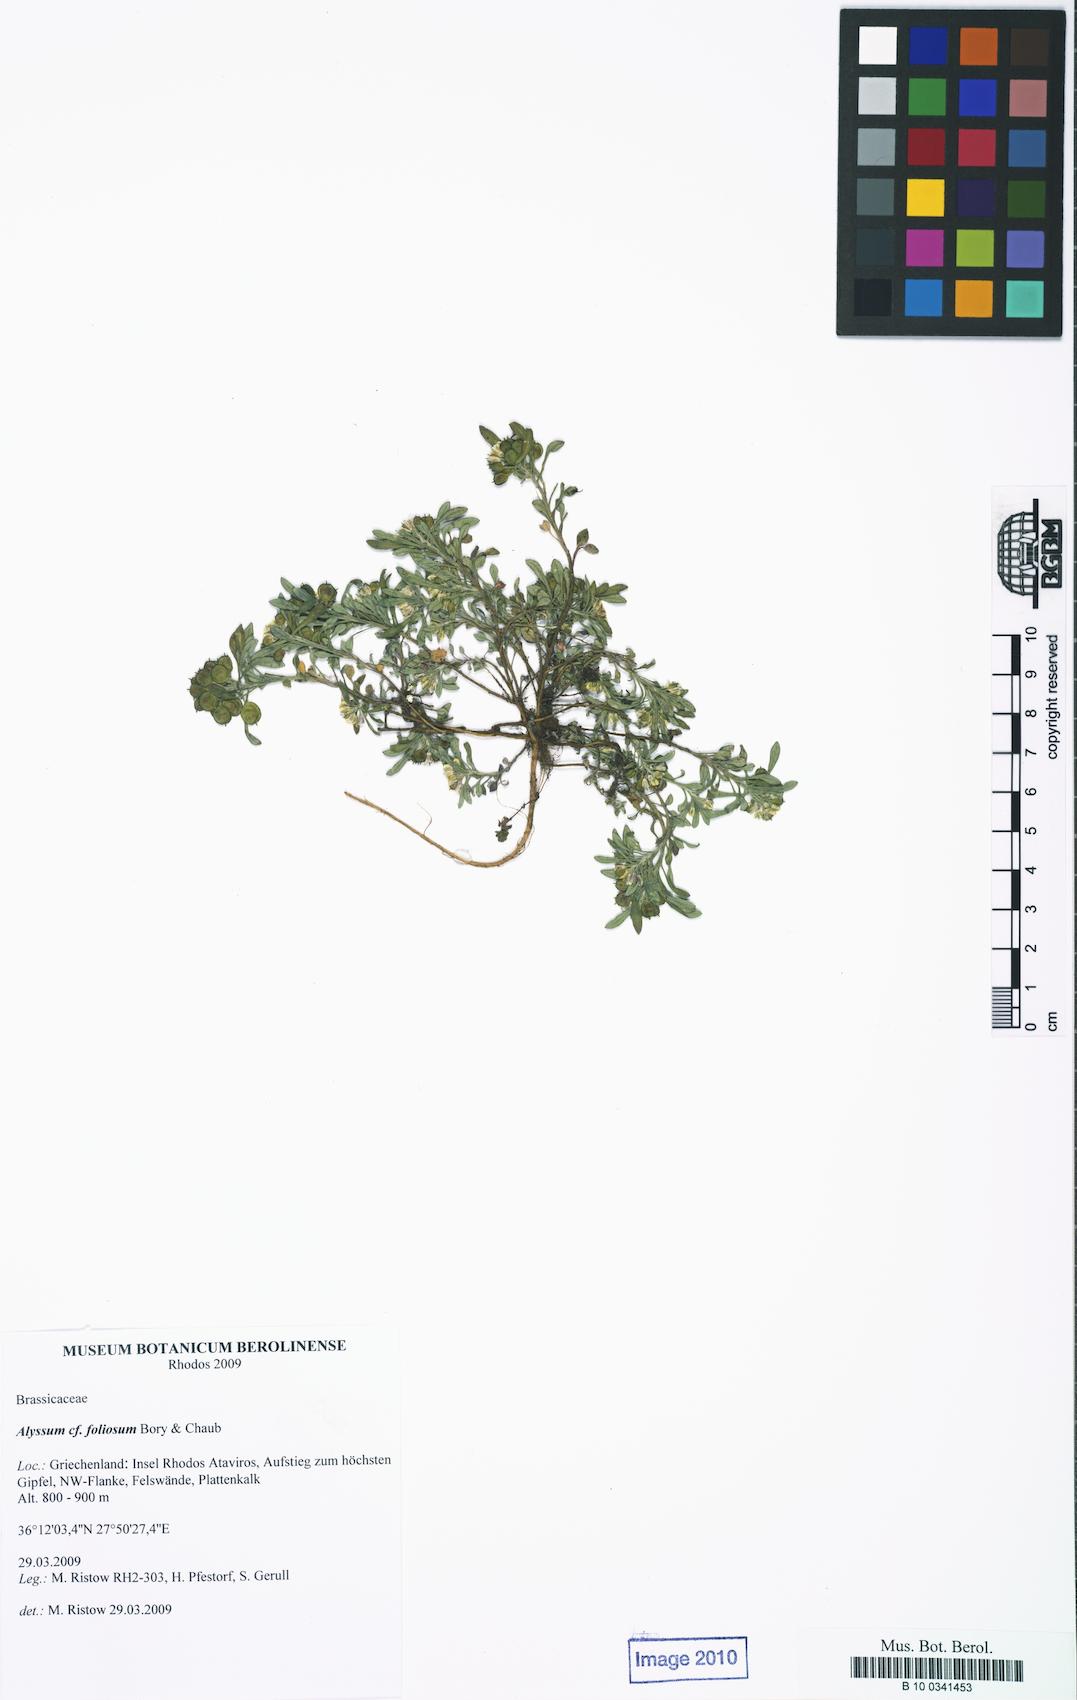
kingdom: Plantae
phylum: Tracheophyta
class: Magnoliopsida
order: Brassicales
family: Brassicaceae
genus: Alyssum
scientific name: Alyssum
